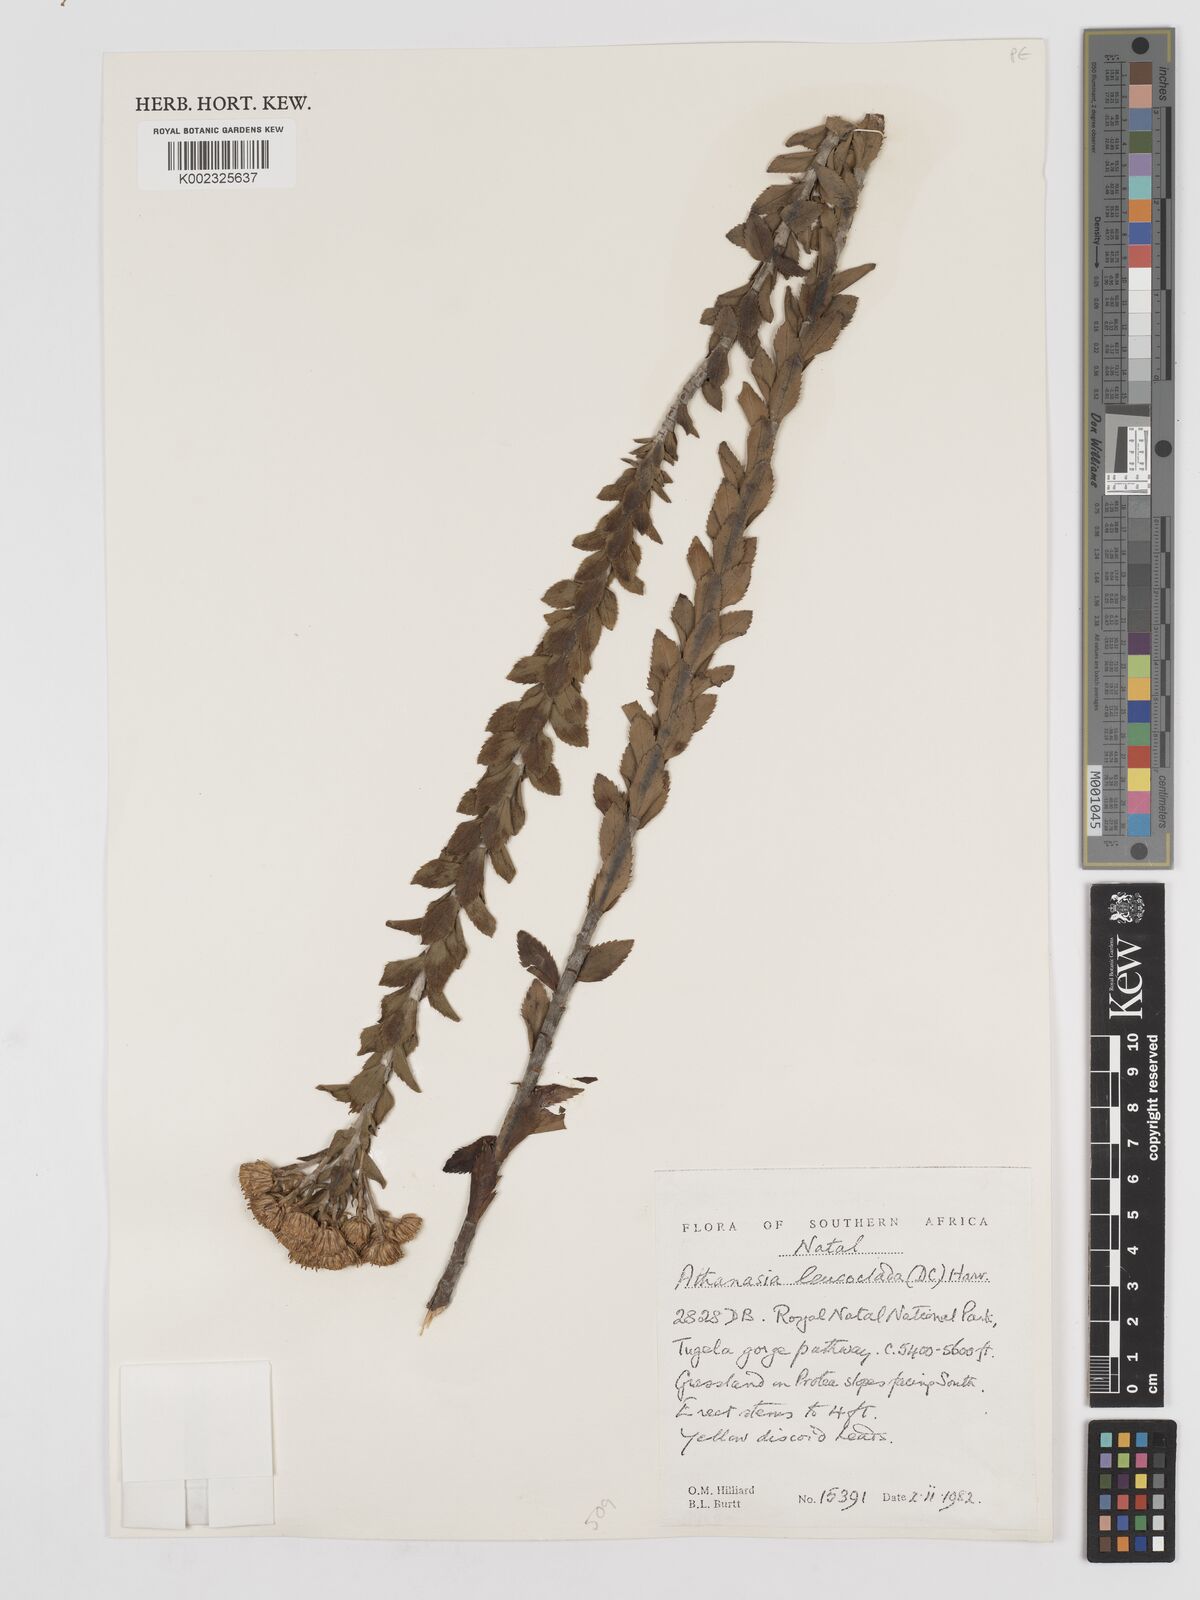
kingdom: Plantae
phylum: Tracheophyta
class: Magnoliopsida
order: Asterales
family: Asteraceae
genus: Inulanthera
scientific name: Inulanthera leucoclada
